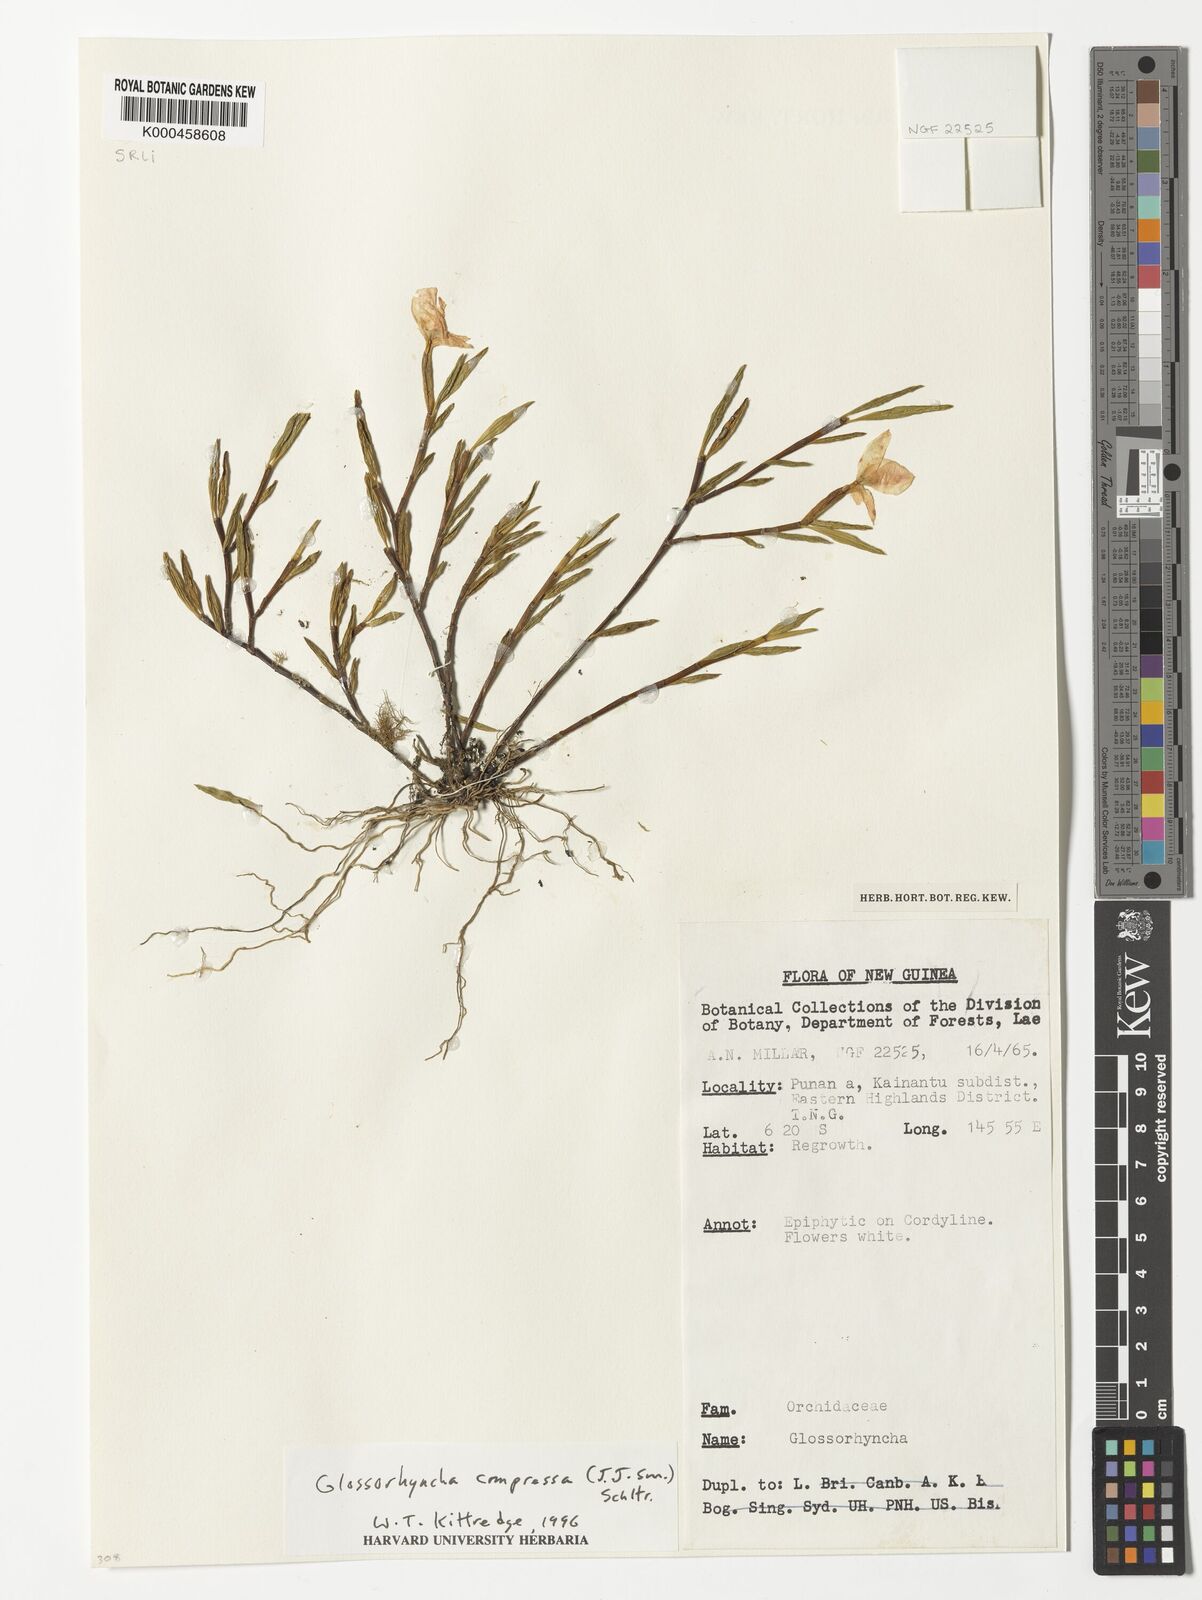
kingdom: Plantae
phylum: Tracheophyta
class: Liliopsida
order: Asparagales
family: Orchidaceae
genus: Glomera
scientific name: Glomera compressa
